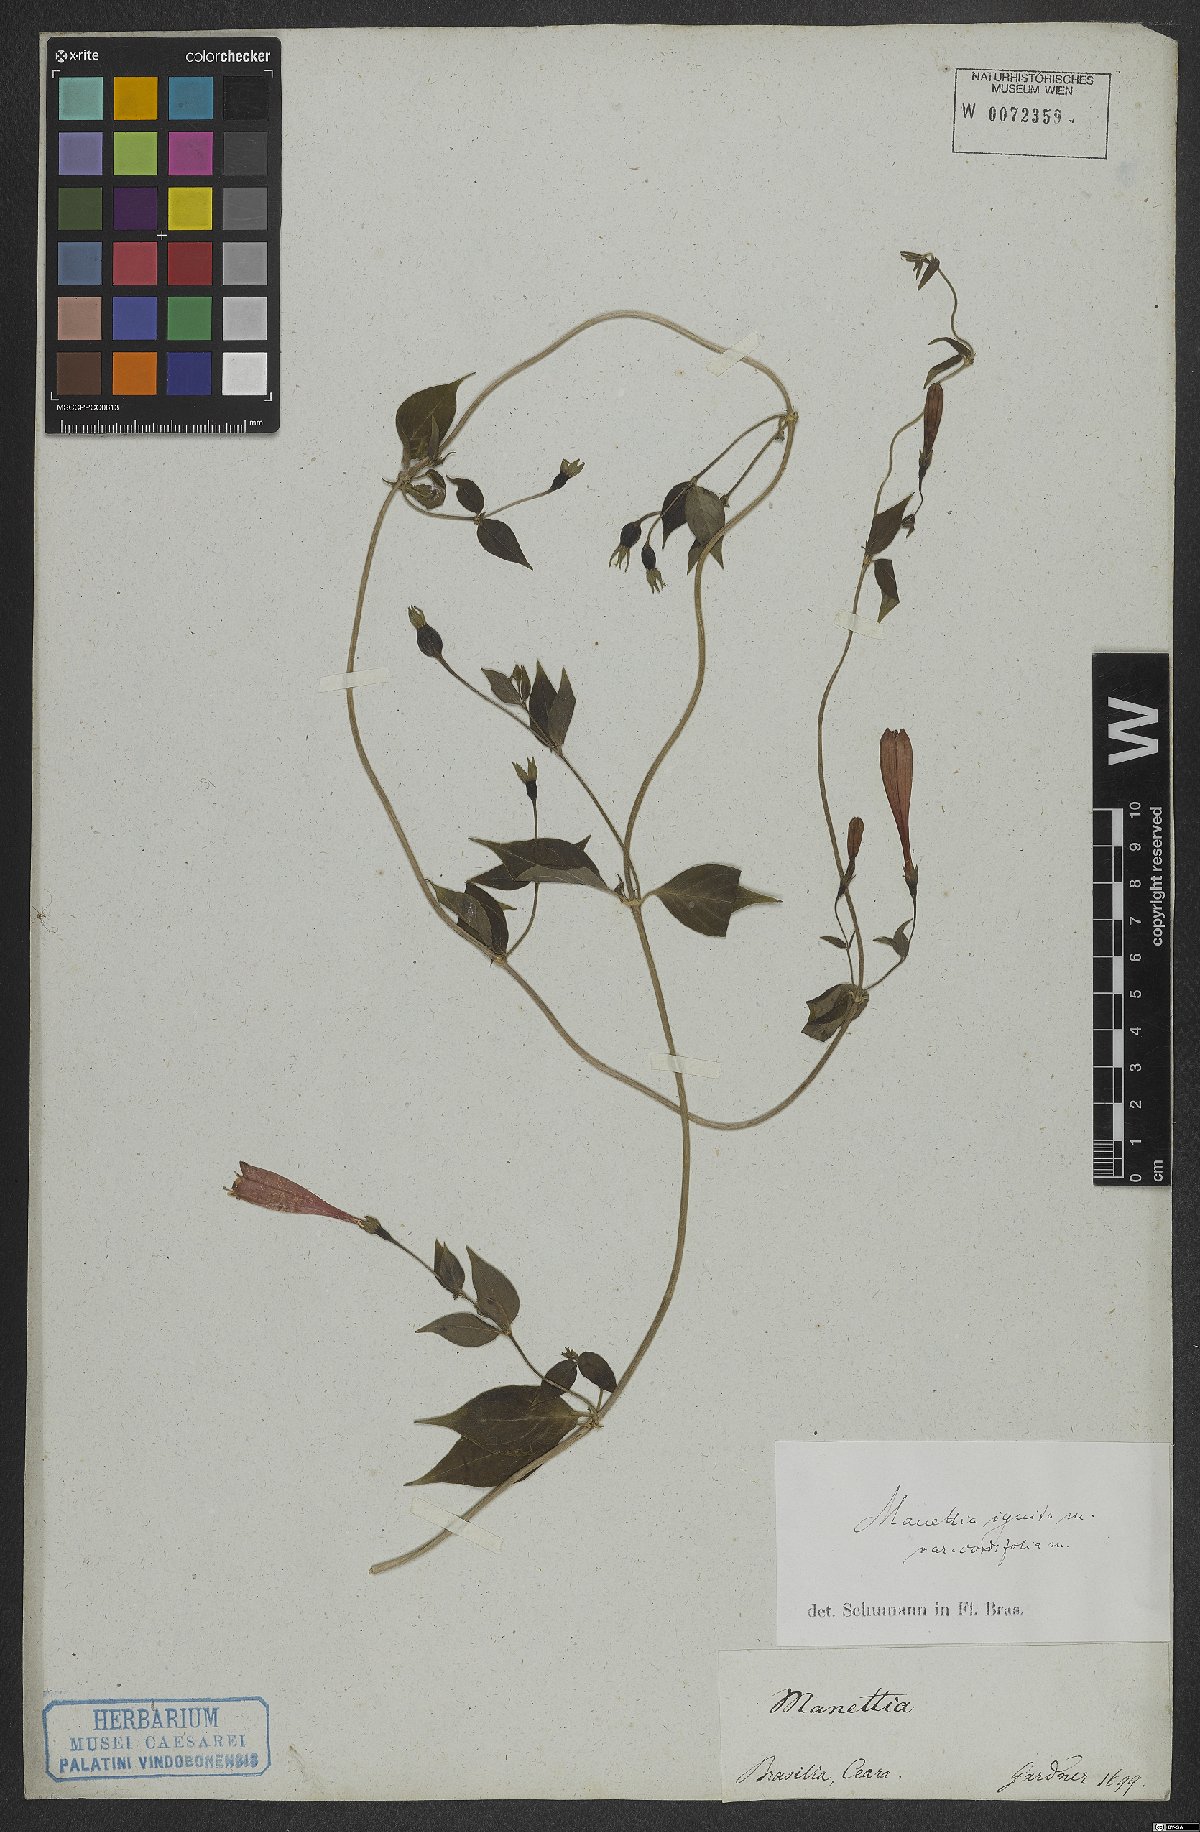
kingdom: Plantae
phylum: Tracheophyta
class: Magnoliopsida
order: Gentianales
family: Rubiaceae
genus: Manettia
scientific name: Manettia cordifolia
